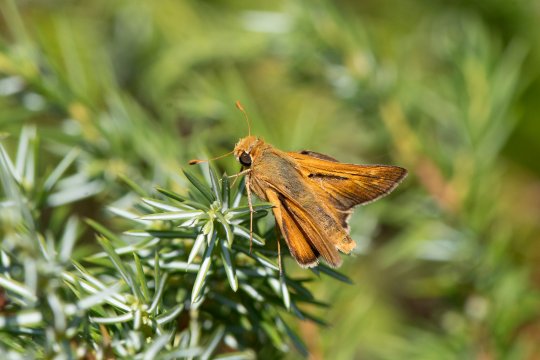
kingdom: Animalia
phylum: Arthropoda
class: Insecta
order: Lepidoptera
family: Hesperiidae
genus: Hesperia
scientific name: Hesperia leonardus
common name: Leonard's Skipper
